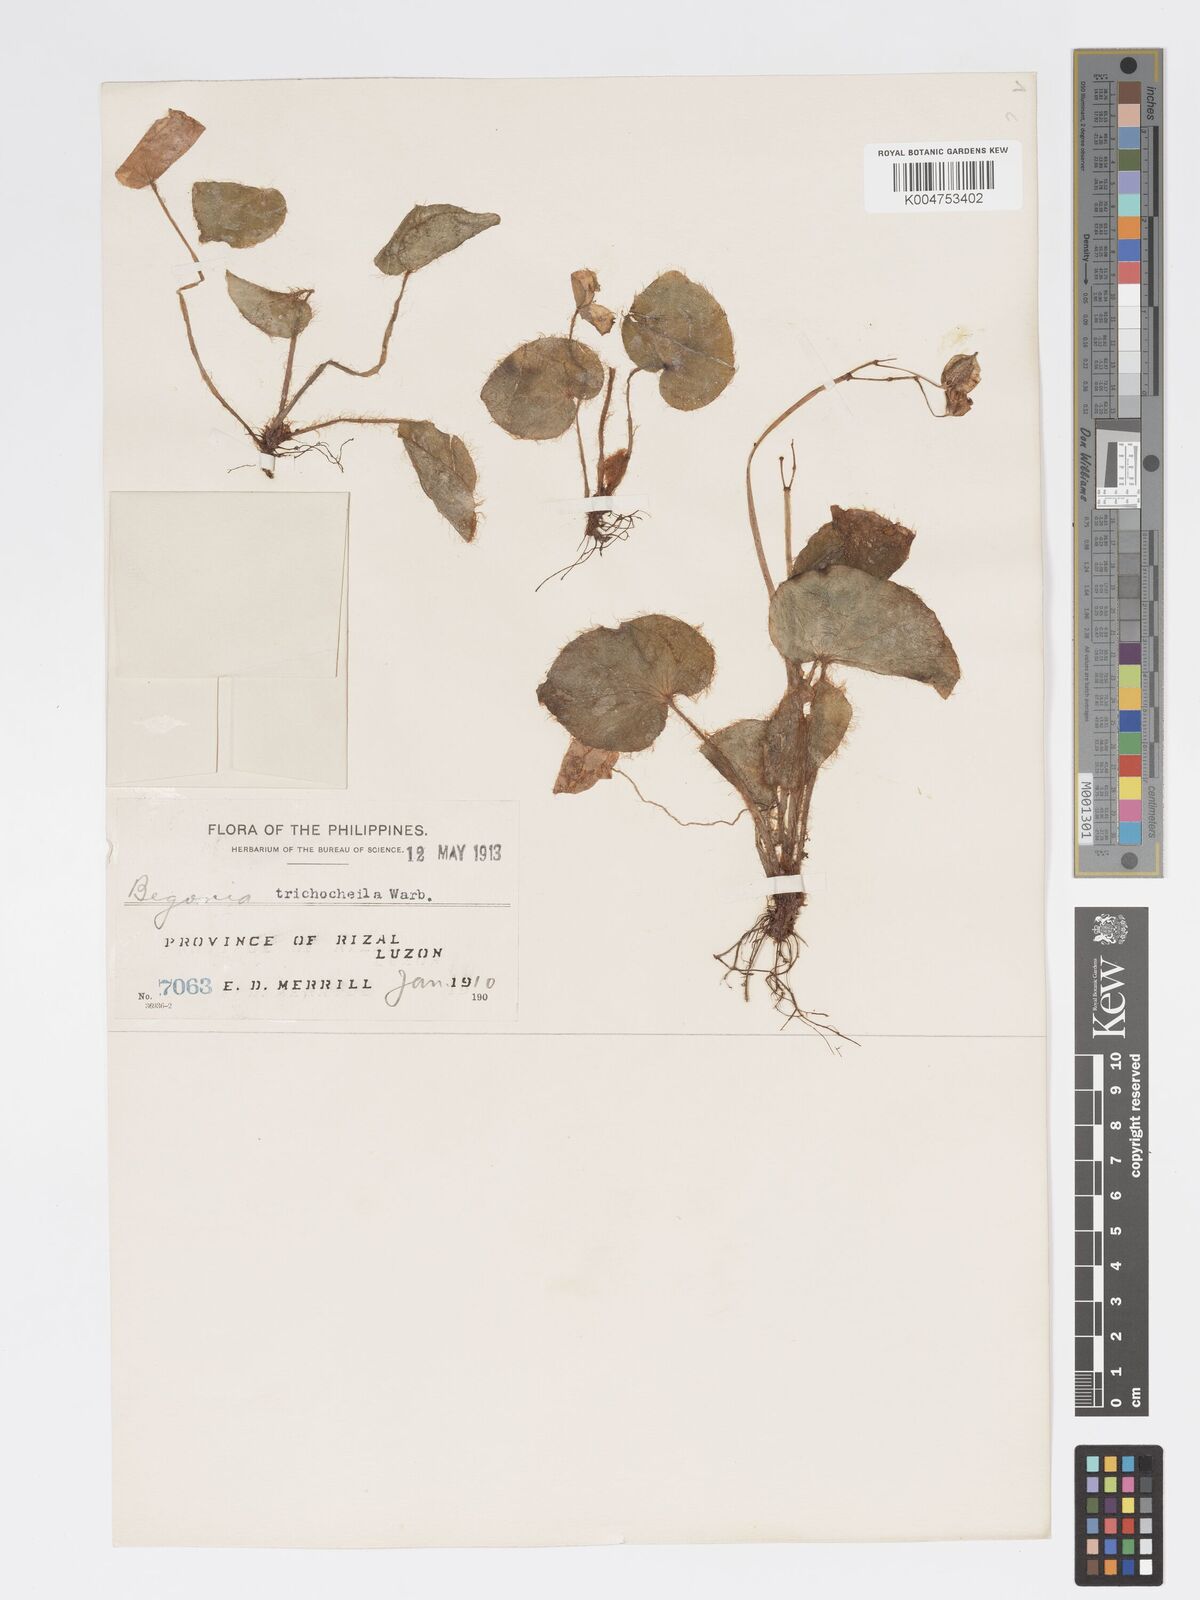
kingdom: Plantae
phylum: Tracheophyta
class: Magnoliopsida
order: Cucurbitales
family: Begoniaceae
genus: Begonia
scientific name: Begonia trichochila
